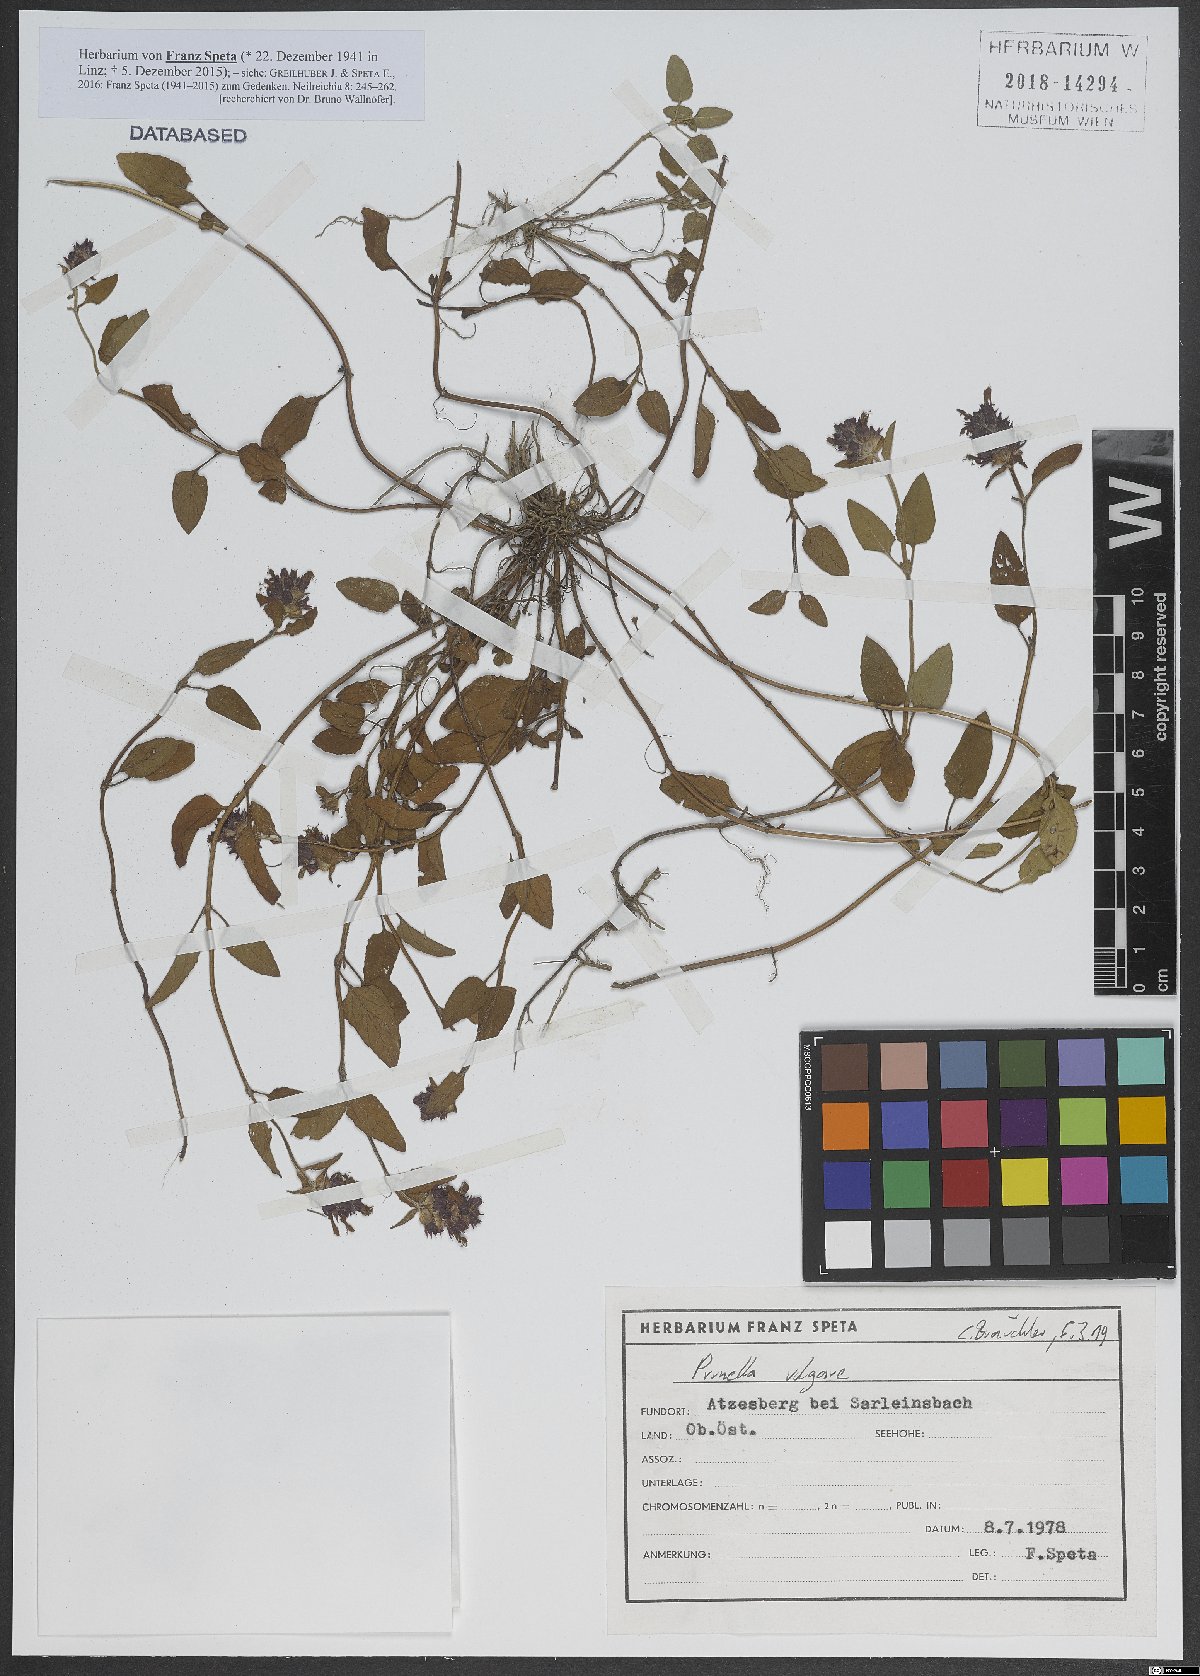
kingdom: Plantae
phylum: Tracheophyta
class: Magnoliopsida
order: Lamiales
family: Lamiaceae
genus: Prunella
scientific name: Prunella vulgaris
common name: Heal-all
